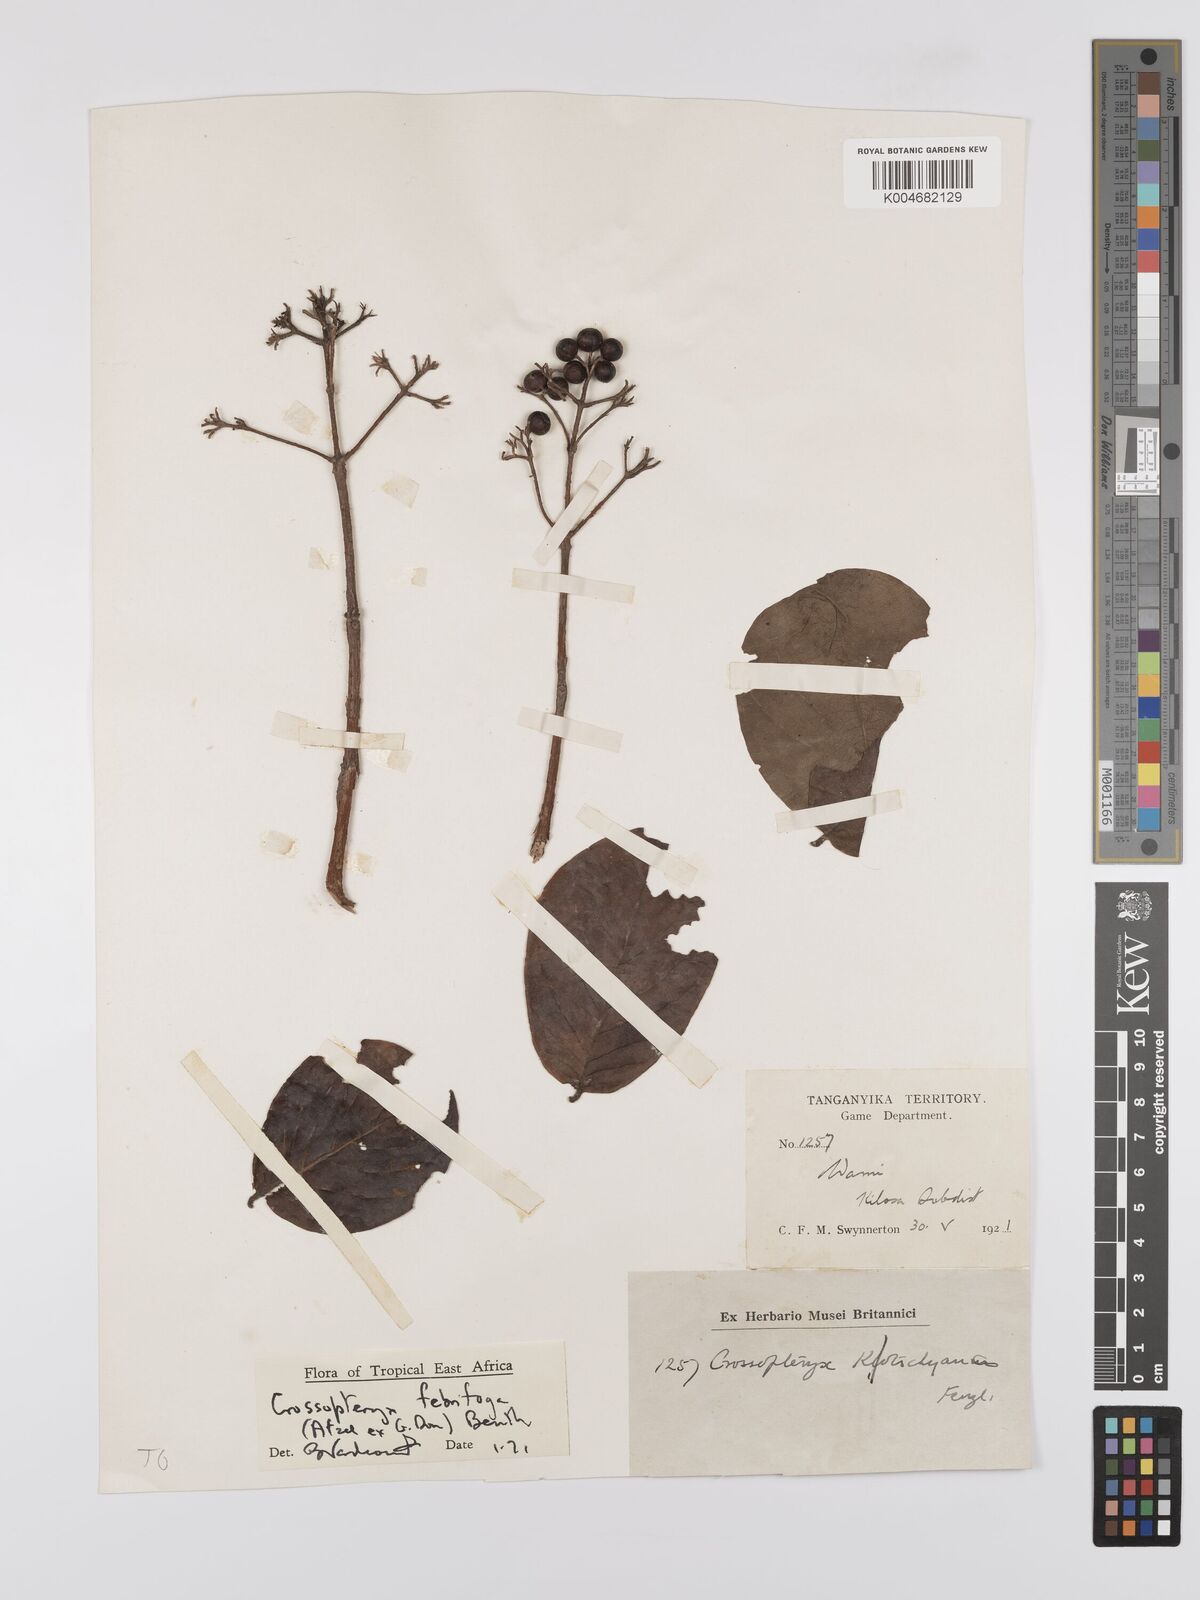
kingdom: Plantae
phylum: Tracheophyta
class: Magnoliopsida
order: Gentianales
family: Rubiaceae
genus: Crossopteryx
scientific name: Crossopteryx febrifuga
